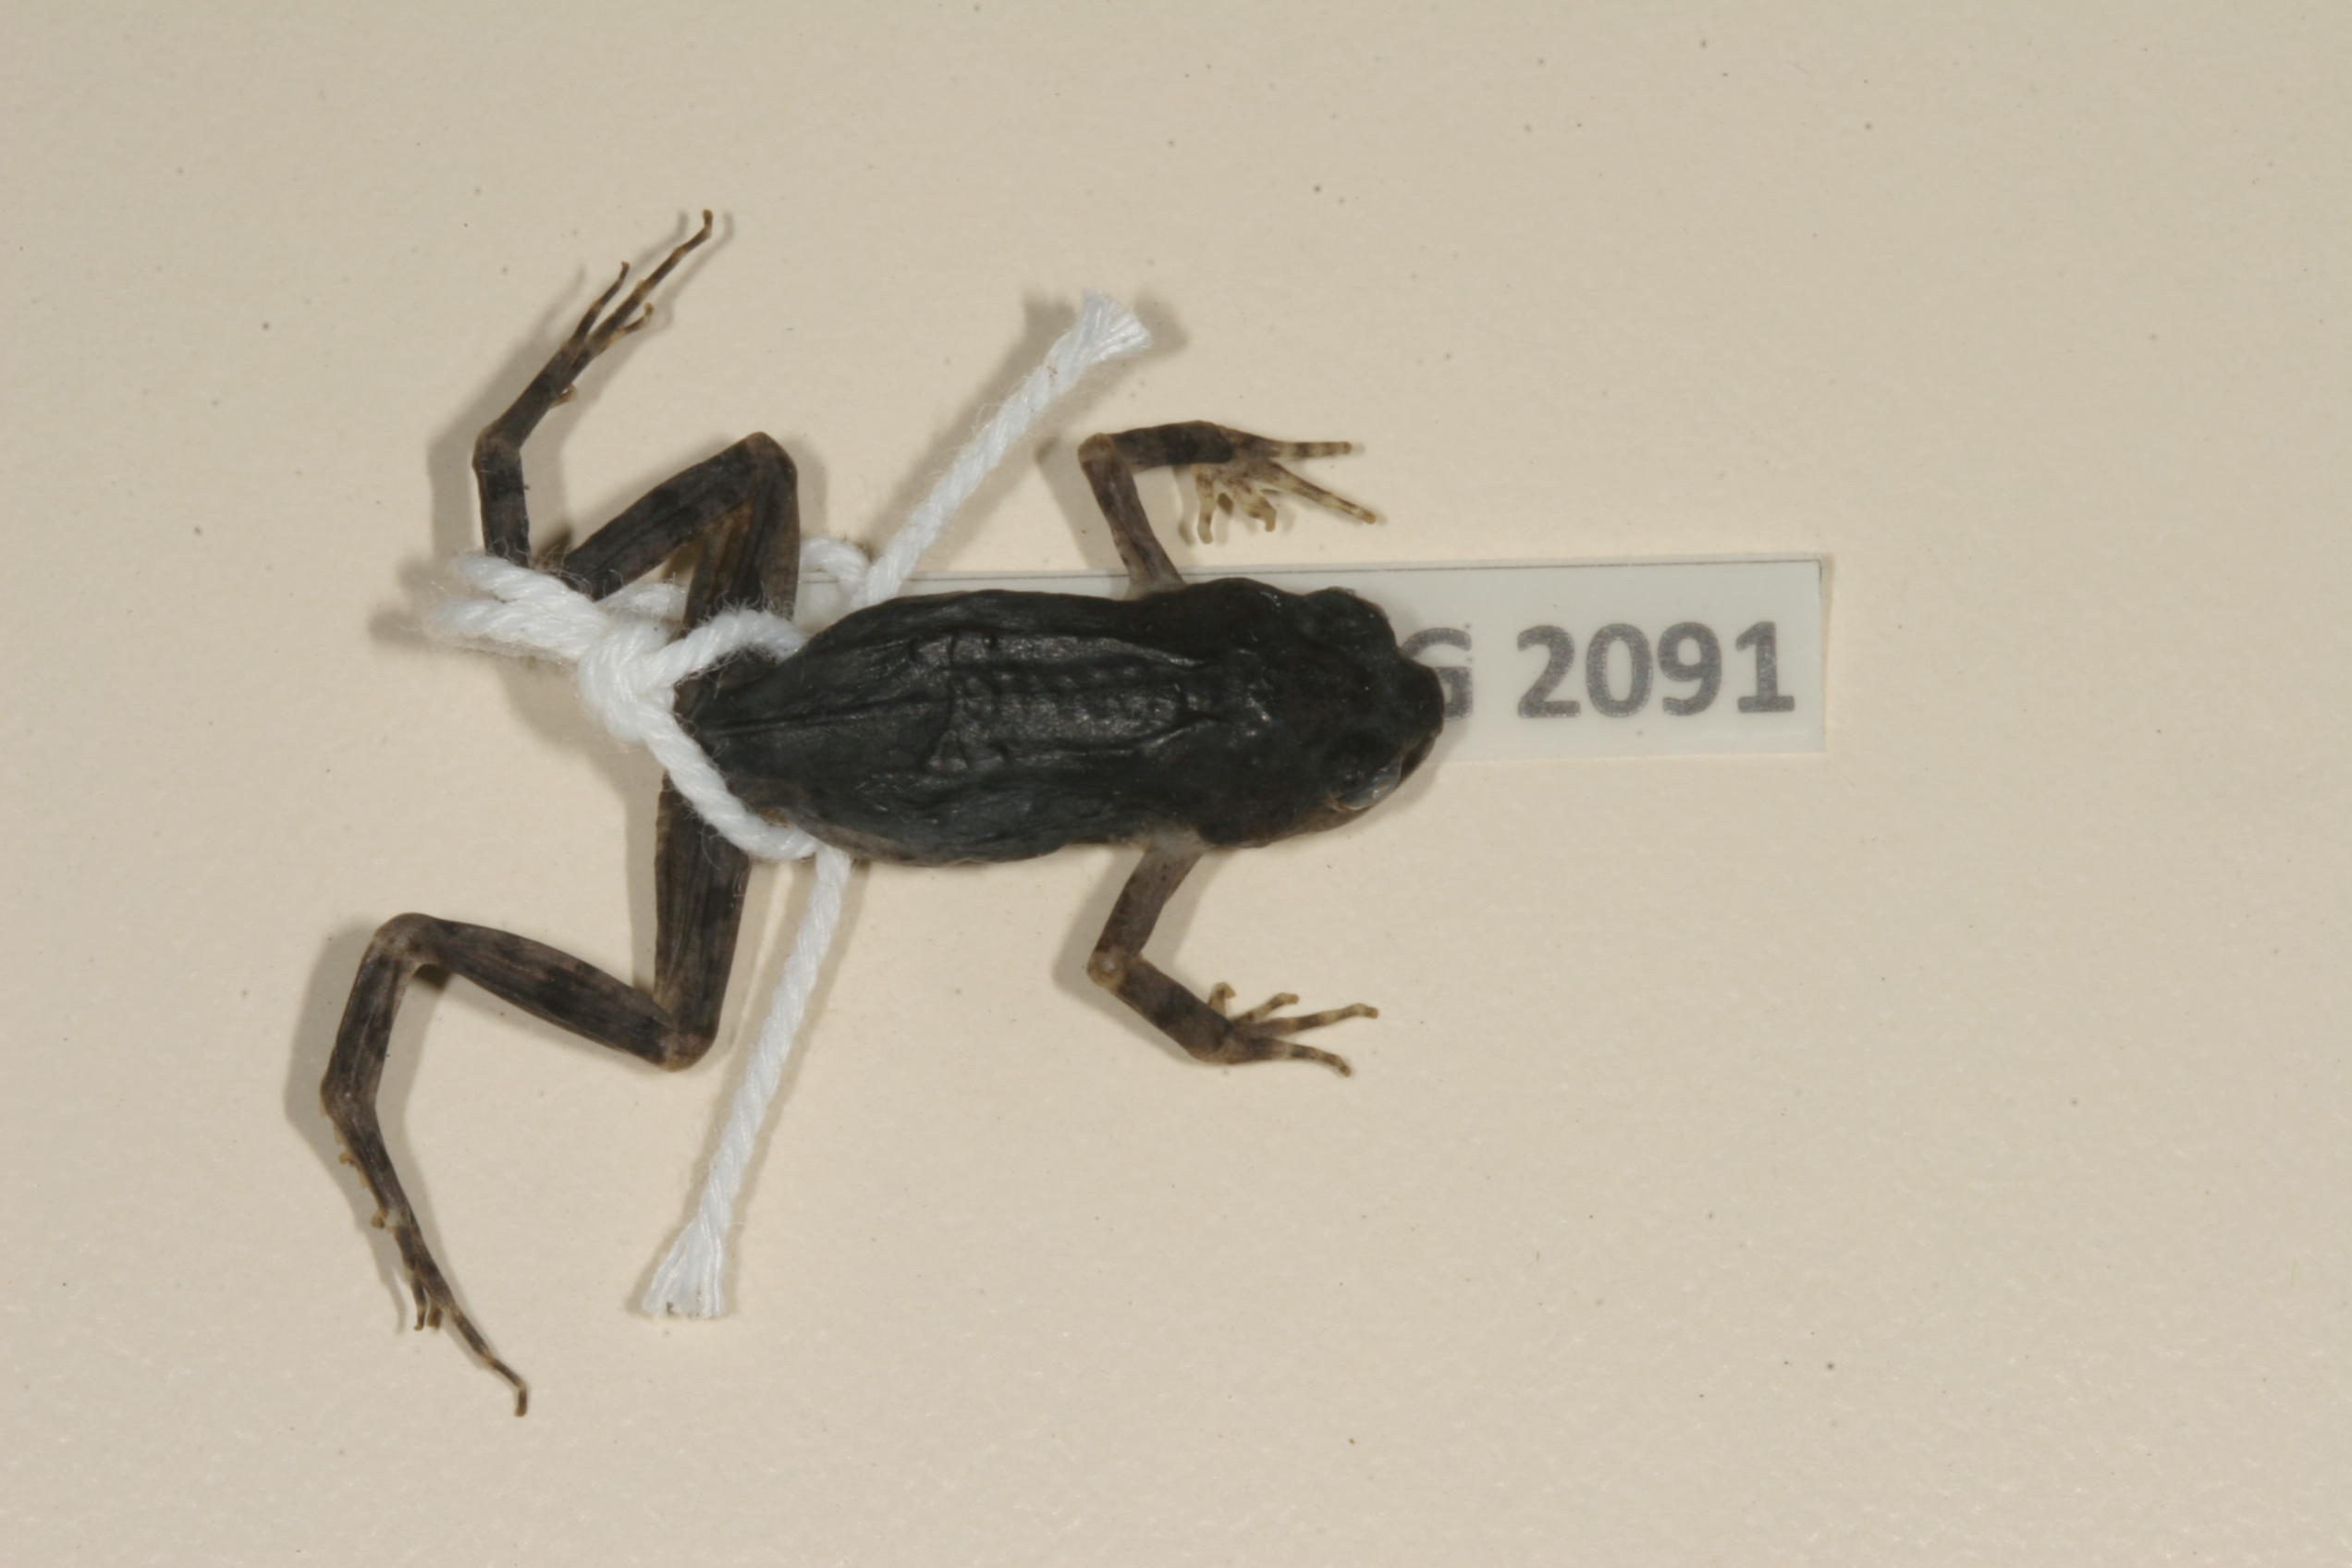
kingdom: Animalia
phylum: Chordata
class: Amphibia
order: Anura
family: Pyxicephalidae
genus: Cacosternum
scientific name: Cacosternum karooicum
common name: Karoo dainty frog
